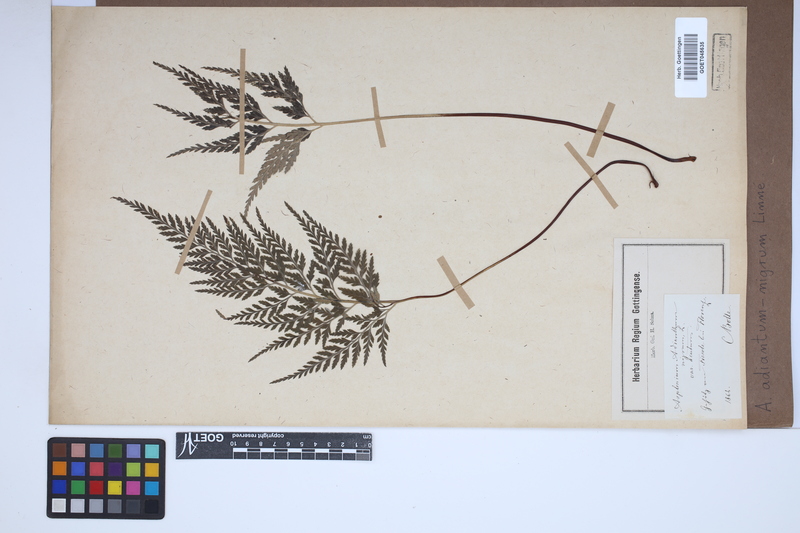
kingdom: Plantae
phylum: Tracheophyta
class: Polypodiopsida
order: Polypodiales
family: Aspleniaceae
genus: Asplenium
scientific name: Asplenium adiantum-nigrum
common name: Black spleenwort
